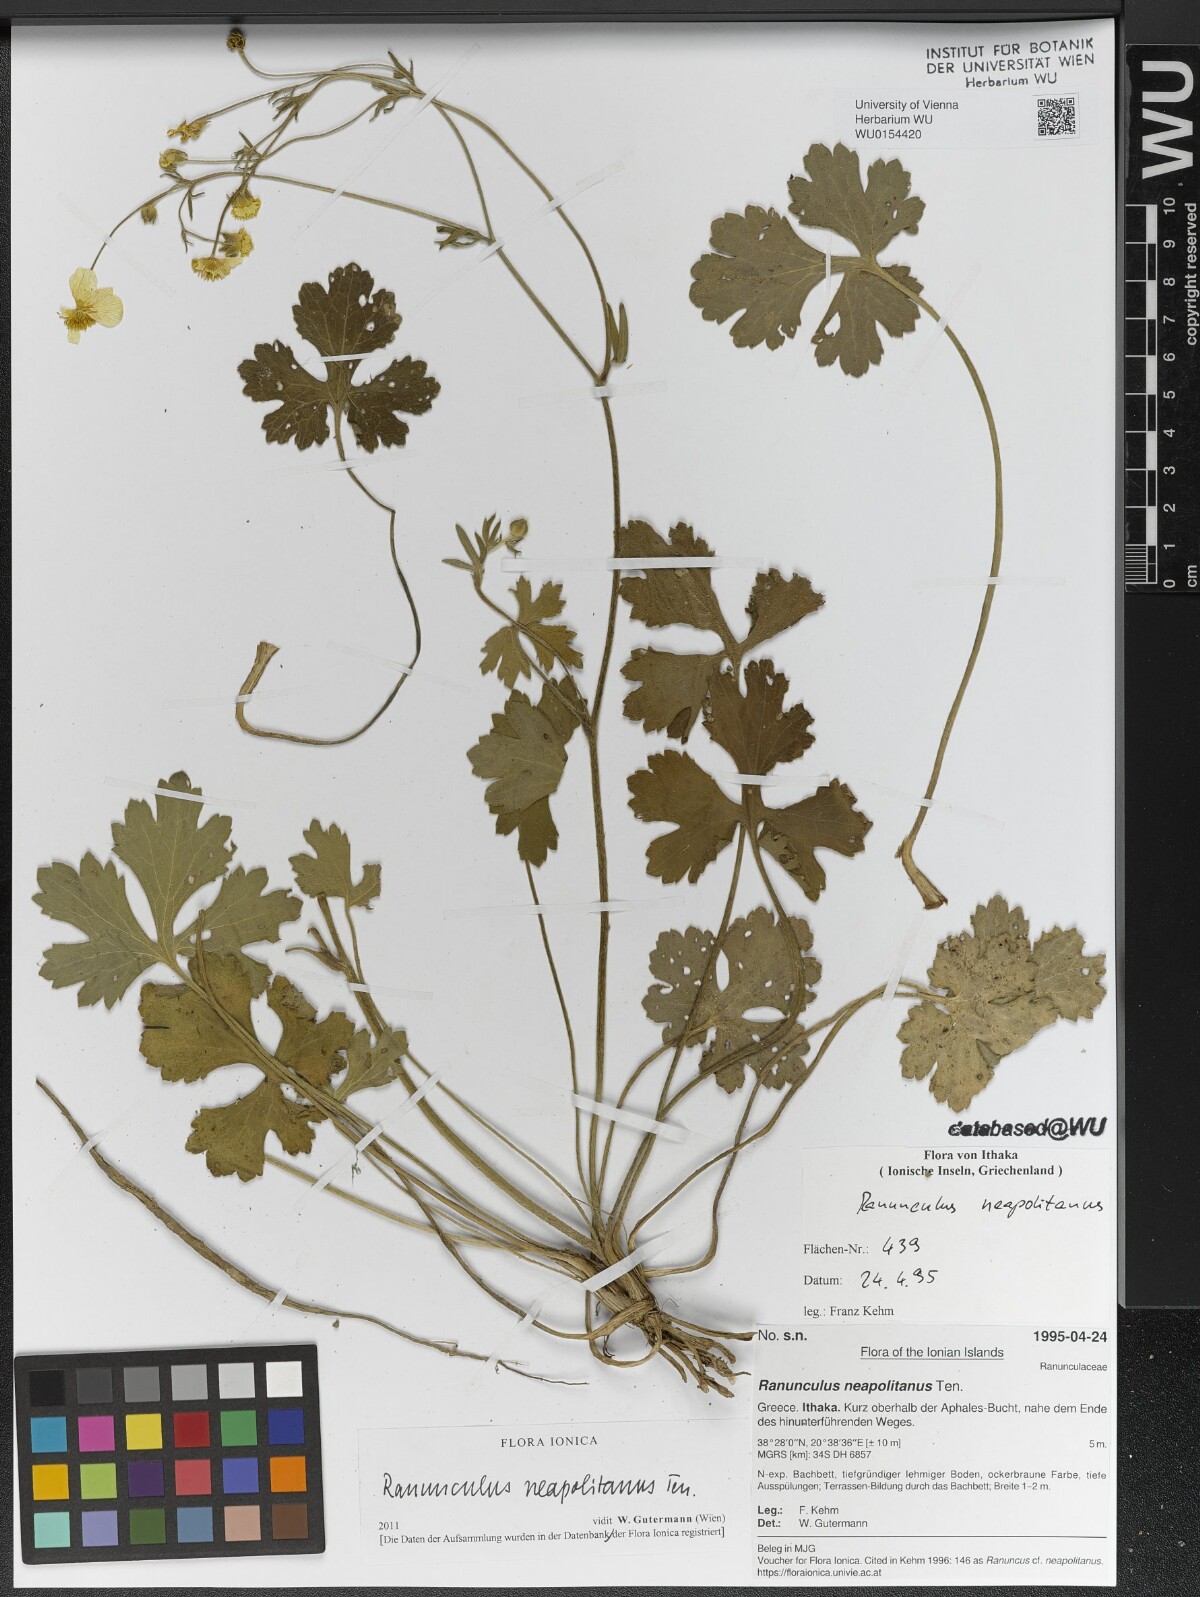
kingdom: Plantae
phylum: Tracheophyta
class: Magnoliopsida
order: Ranunculales
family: Ranunculaceae
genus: Ranunculus
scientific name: Ranunculus neapolitanus
